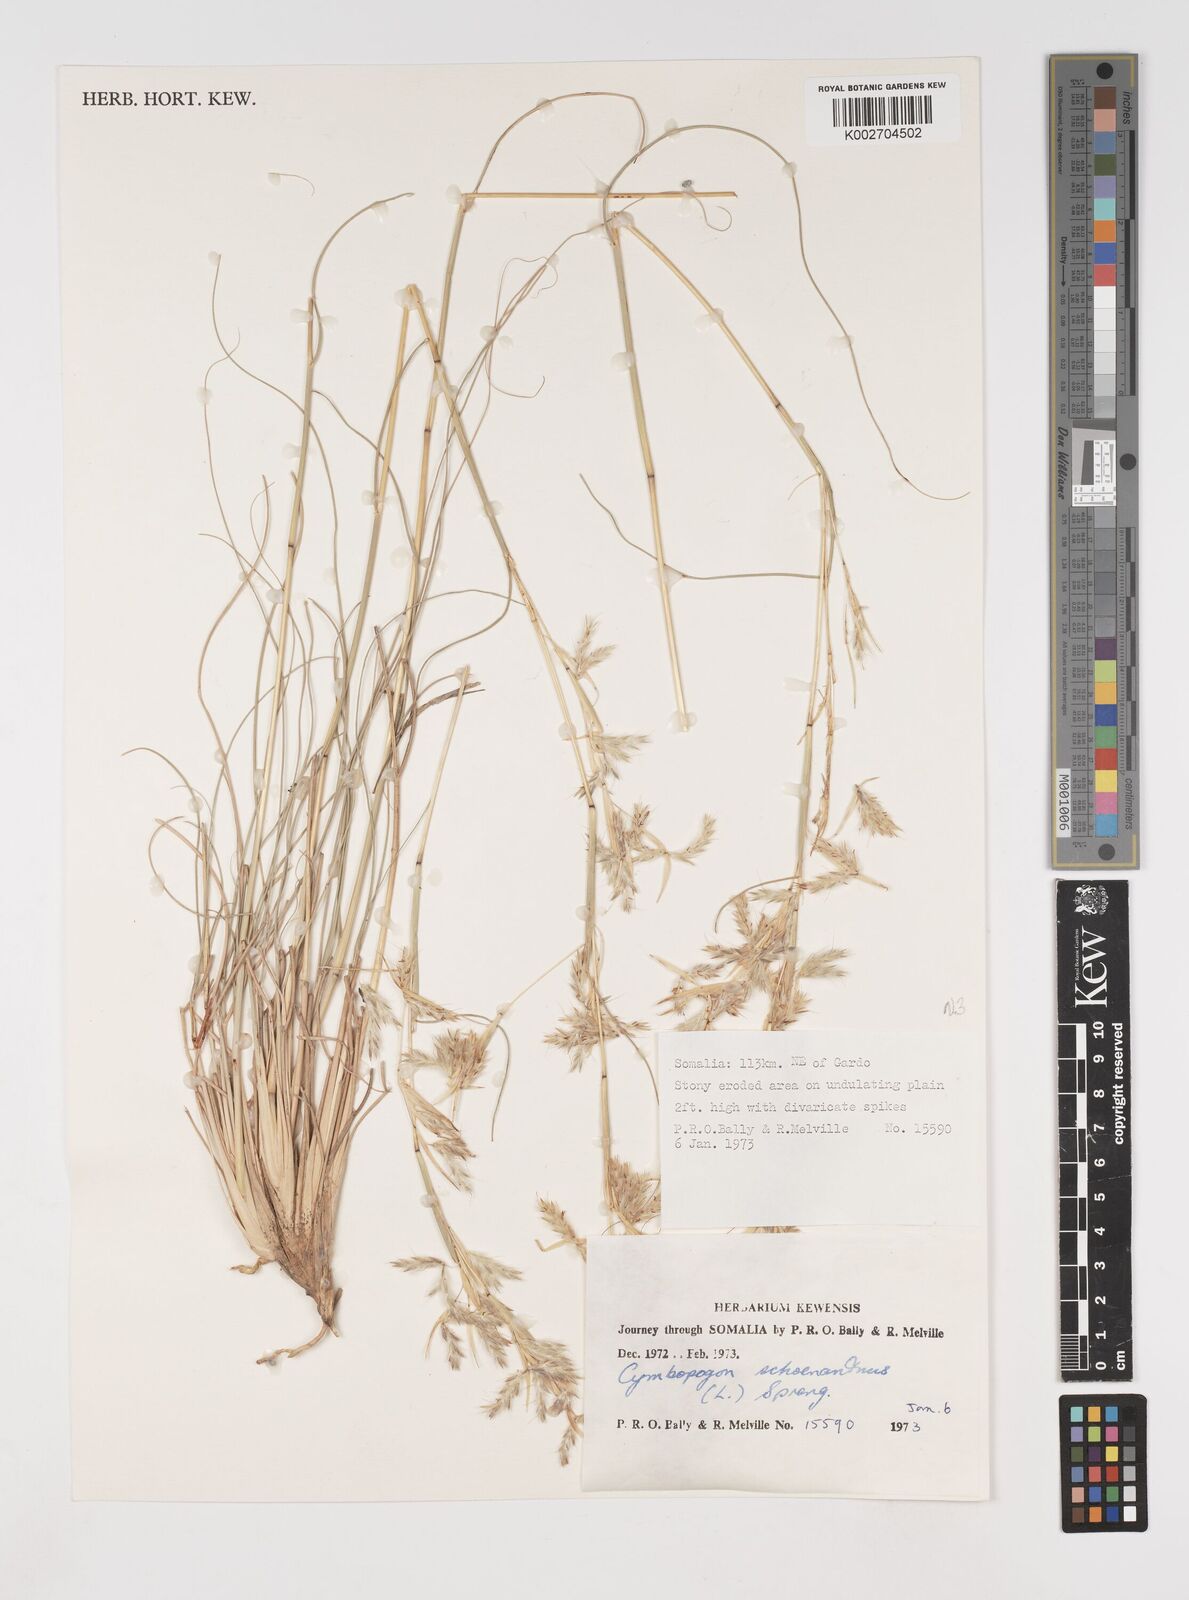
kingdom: Plantae
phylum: Tracheophyta
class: Liliopsida
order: Poales
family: Poaceae
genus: Cymbopogon
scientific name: Cymbopogon schoenanthus
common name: Geranium grass
